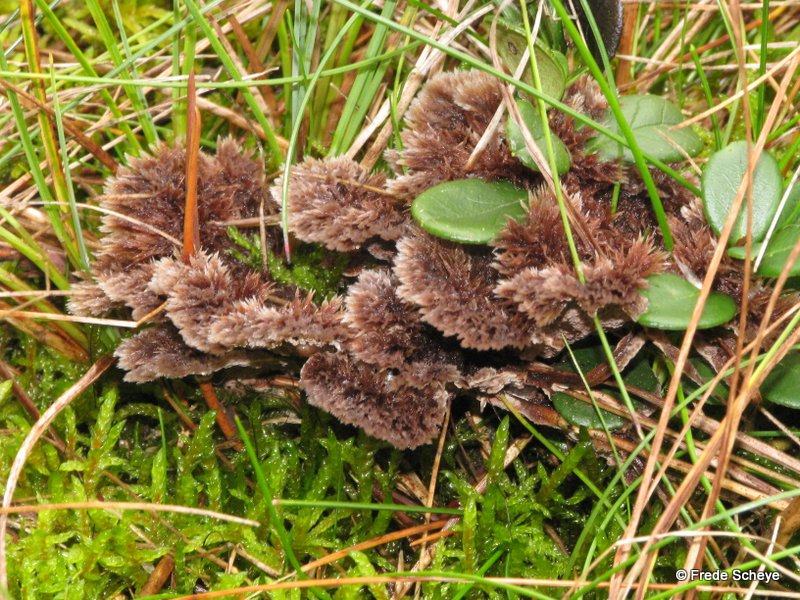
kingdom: Fungi
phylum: Basidiomycota
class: Agaricomycetes
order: Thelephorales
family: Thelephoraceae
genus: Thelephora
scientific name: Thelephora terrestris
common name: fliget frynsesvamp
